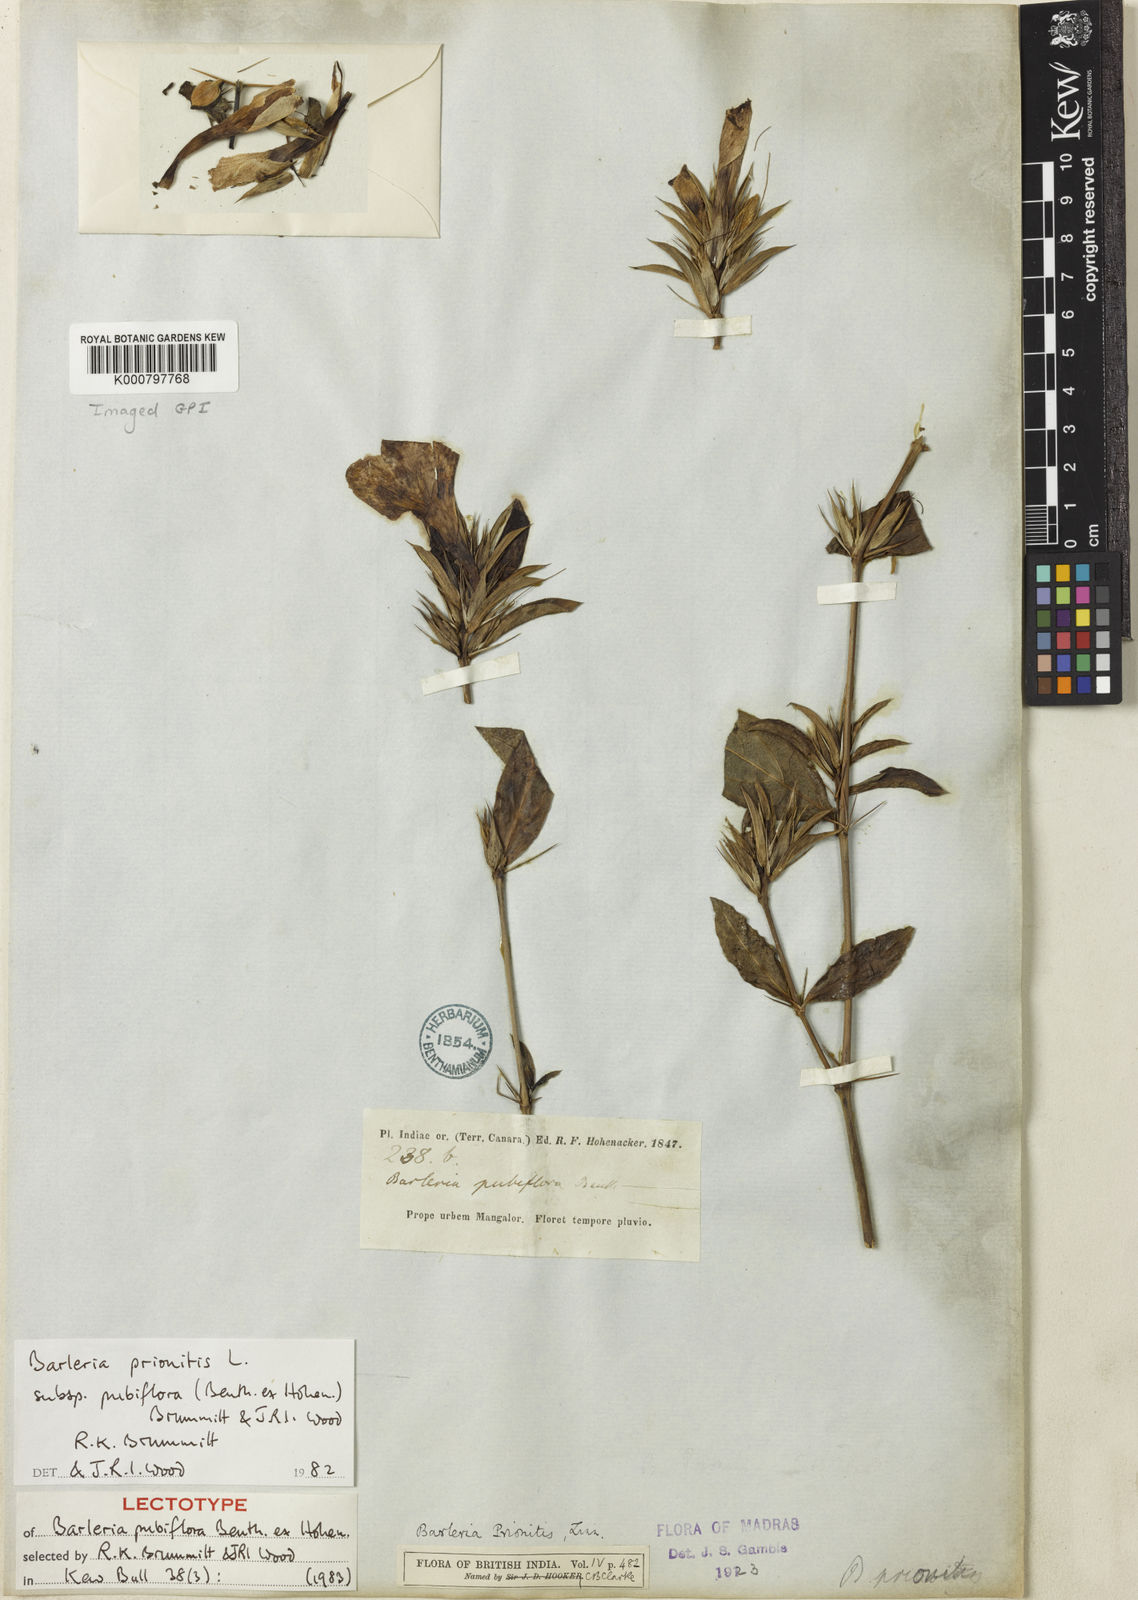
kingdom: Plantae
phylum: Tracheophyta
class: Magnoliopsida
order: Lamiales
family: Acanthaceae
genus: Barleria
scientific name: Barleria prionitis
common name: Barleria
